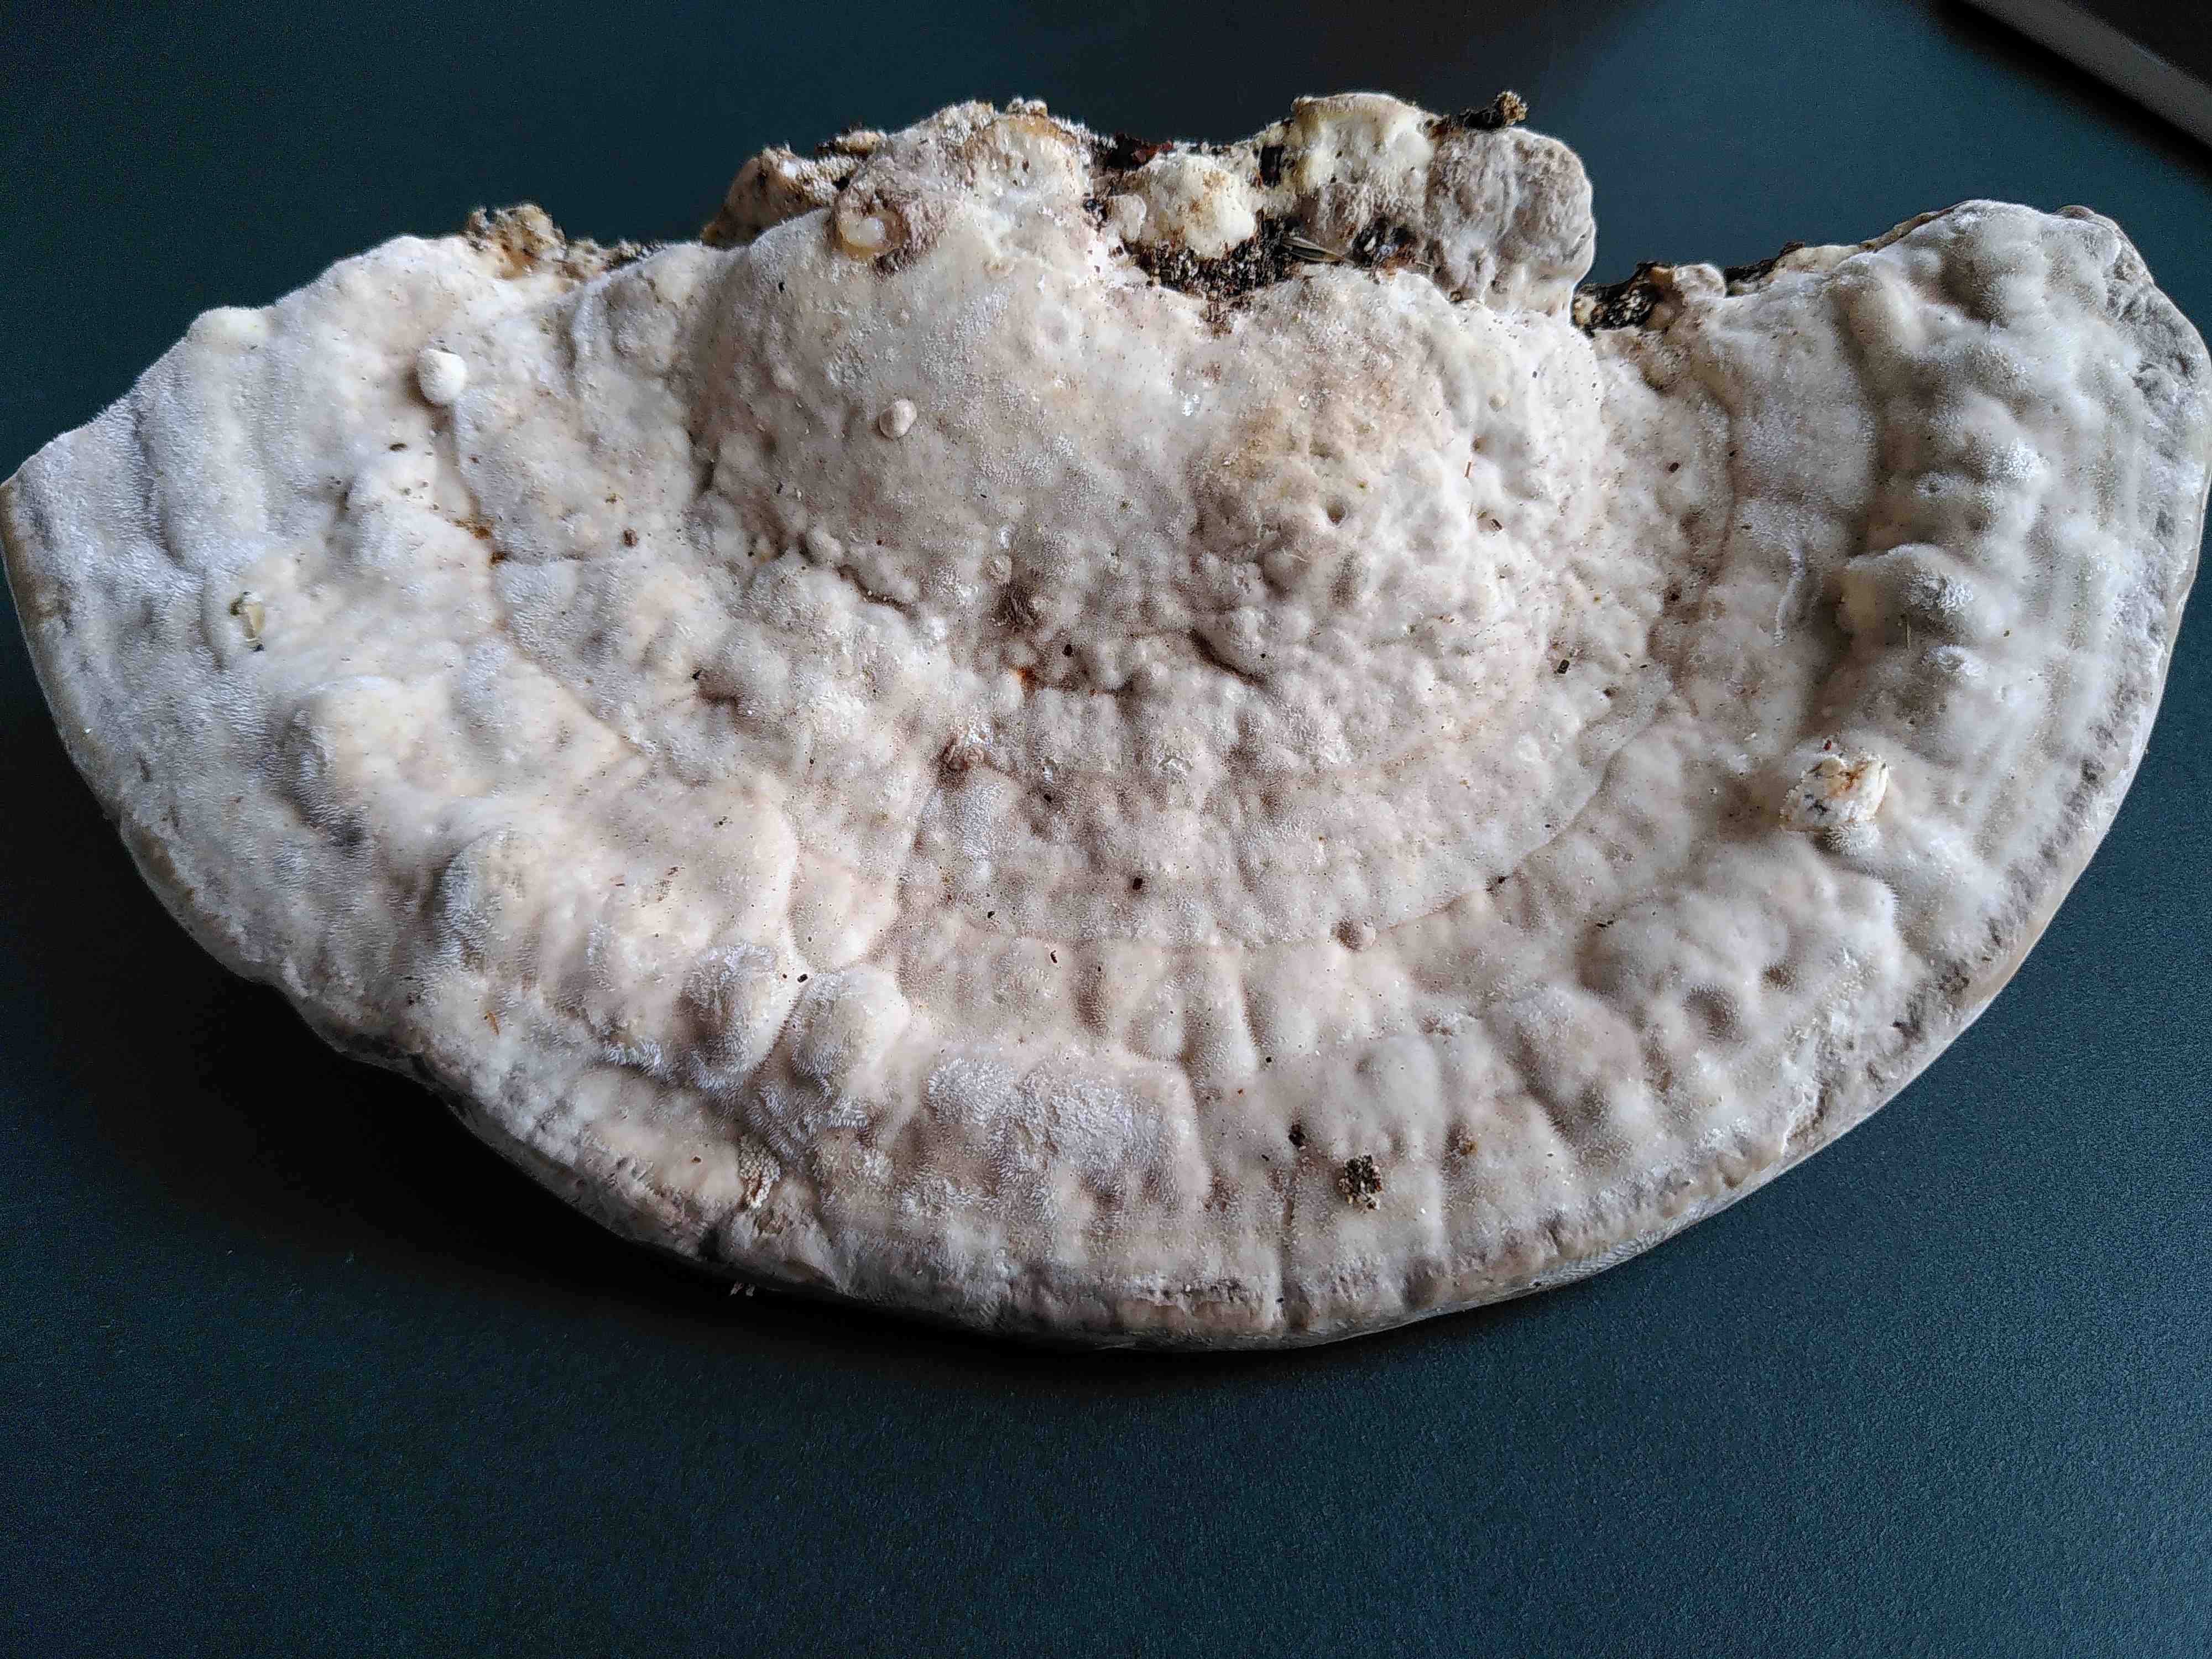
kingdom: Fungi
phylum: Basidiomycota
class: Agaricomycetes
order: Polyporales
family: Polyporaceae
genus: Trametes
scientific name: Trametes gibbosa
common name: puklet læderporesvamp
